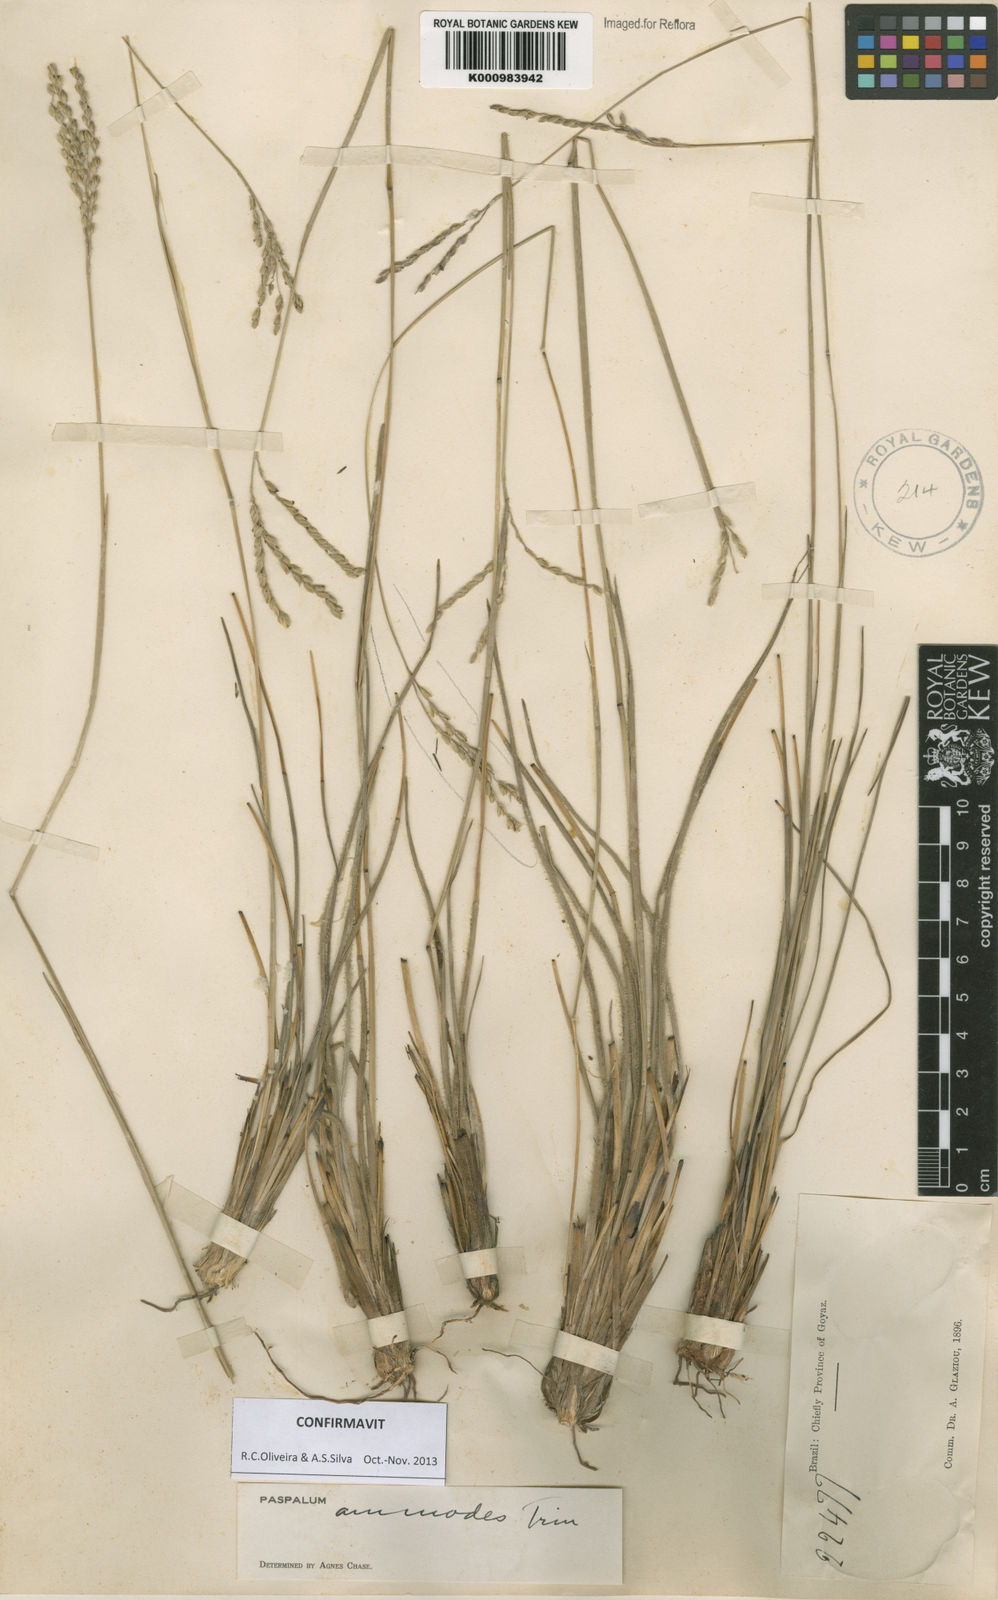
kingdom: Plantae
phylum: Tracheophyta
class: Liliopsida
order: Poales
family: Poaceae
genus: Paspalum
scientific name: Paspalum ammodes
